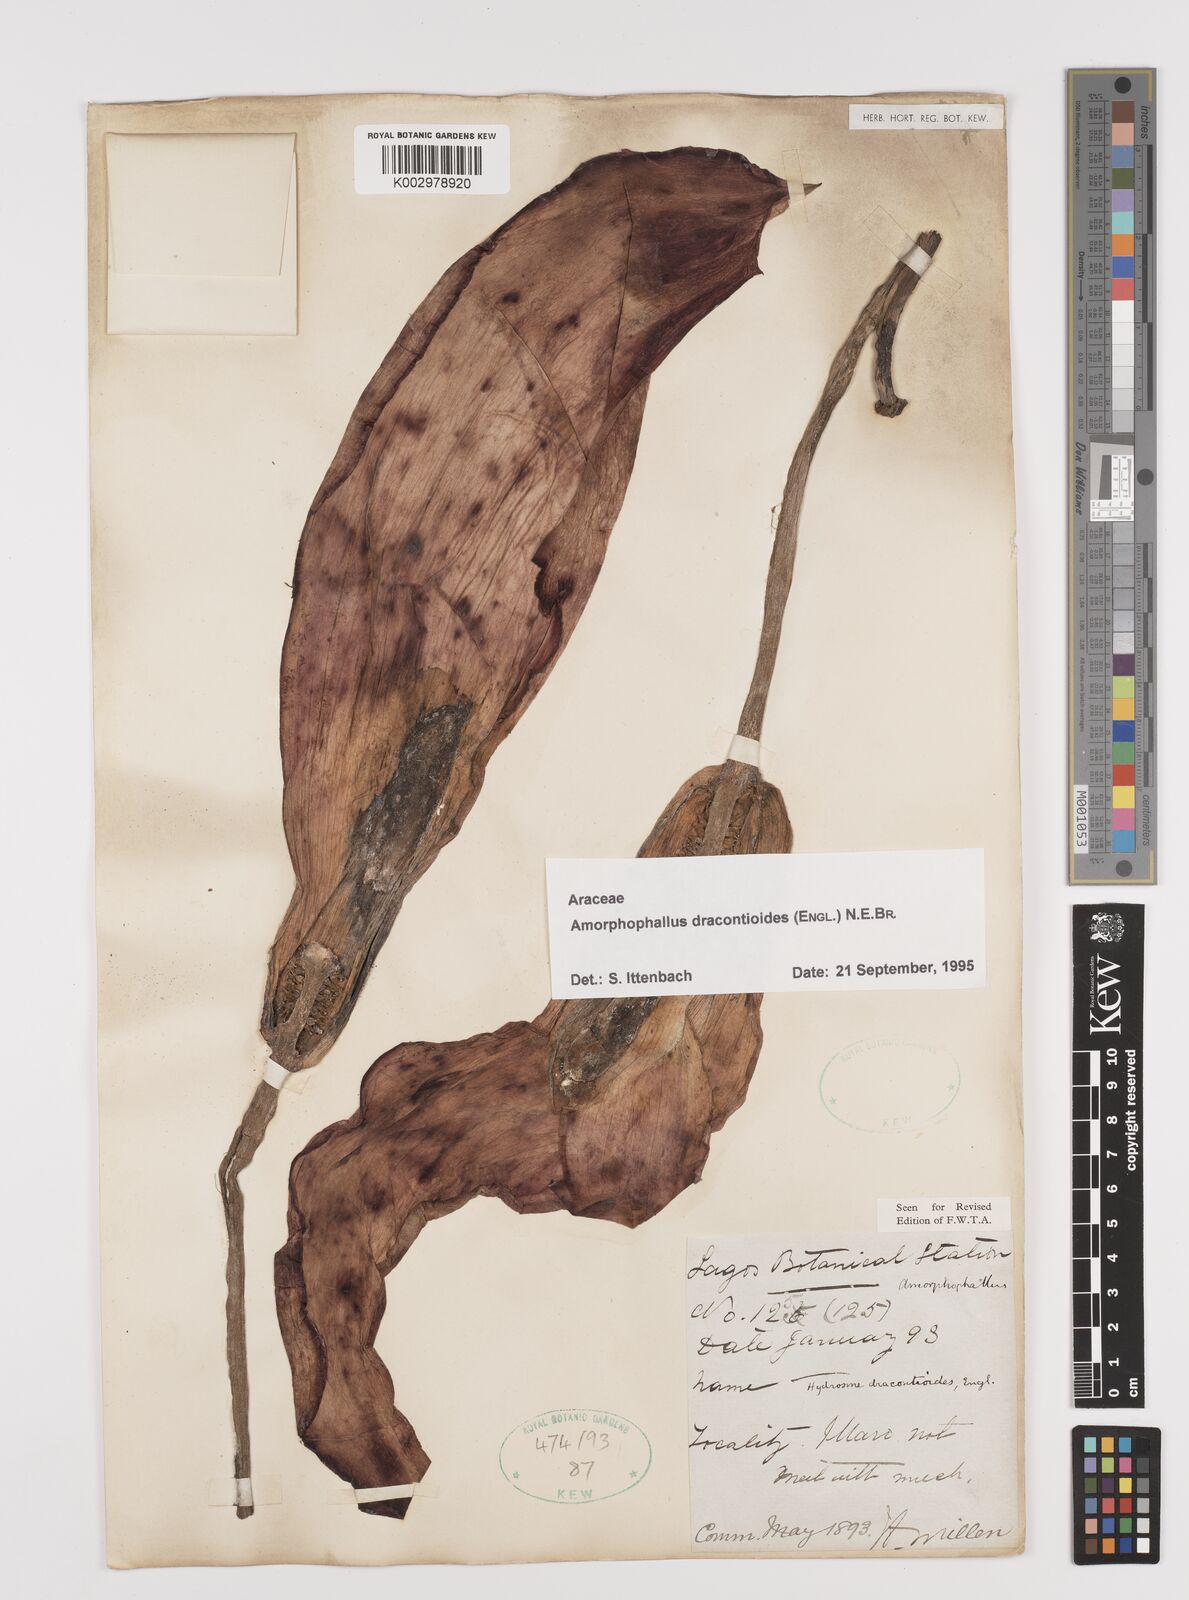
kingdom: Plantae
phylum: Tracheophyta
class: Liliopsida
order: Alismatales
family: Araceae
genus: Amorphophallus
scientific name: Amorphophallus dracontioides
